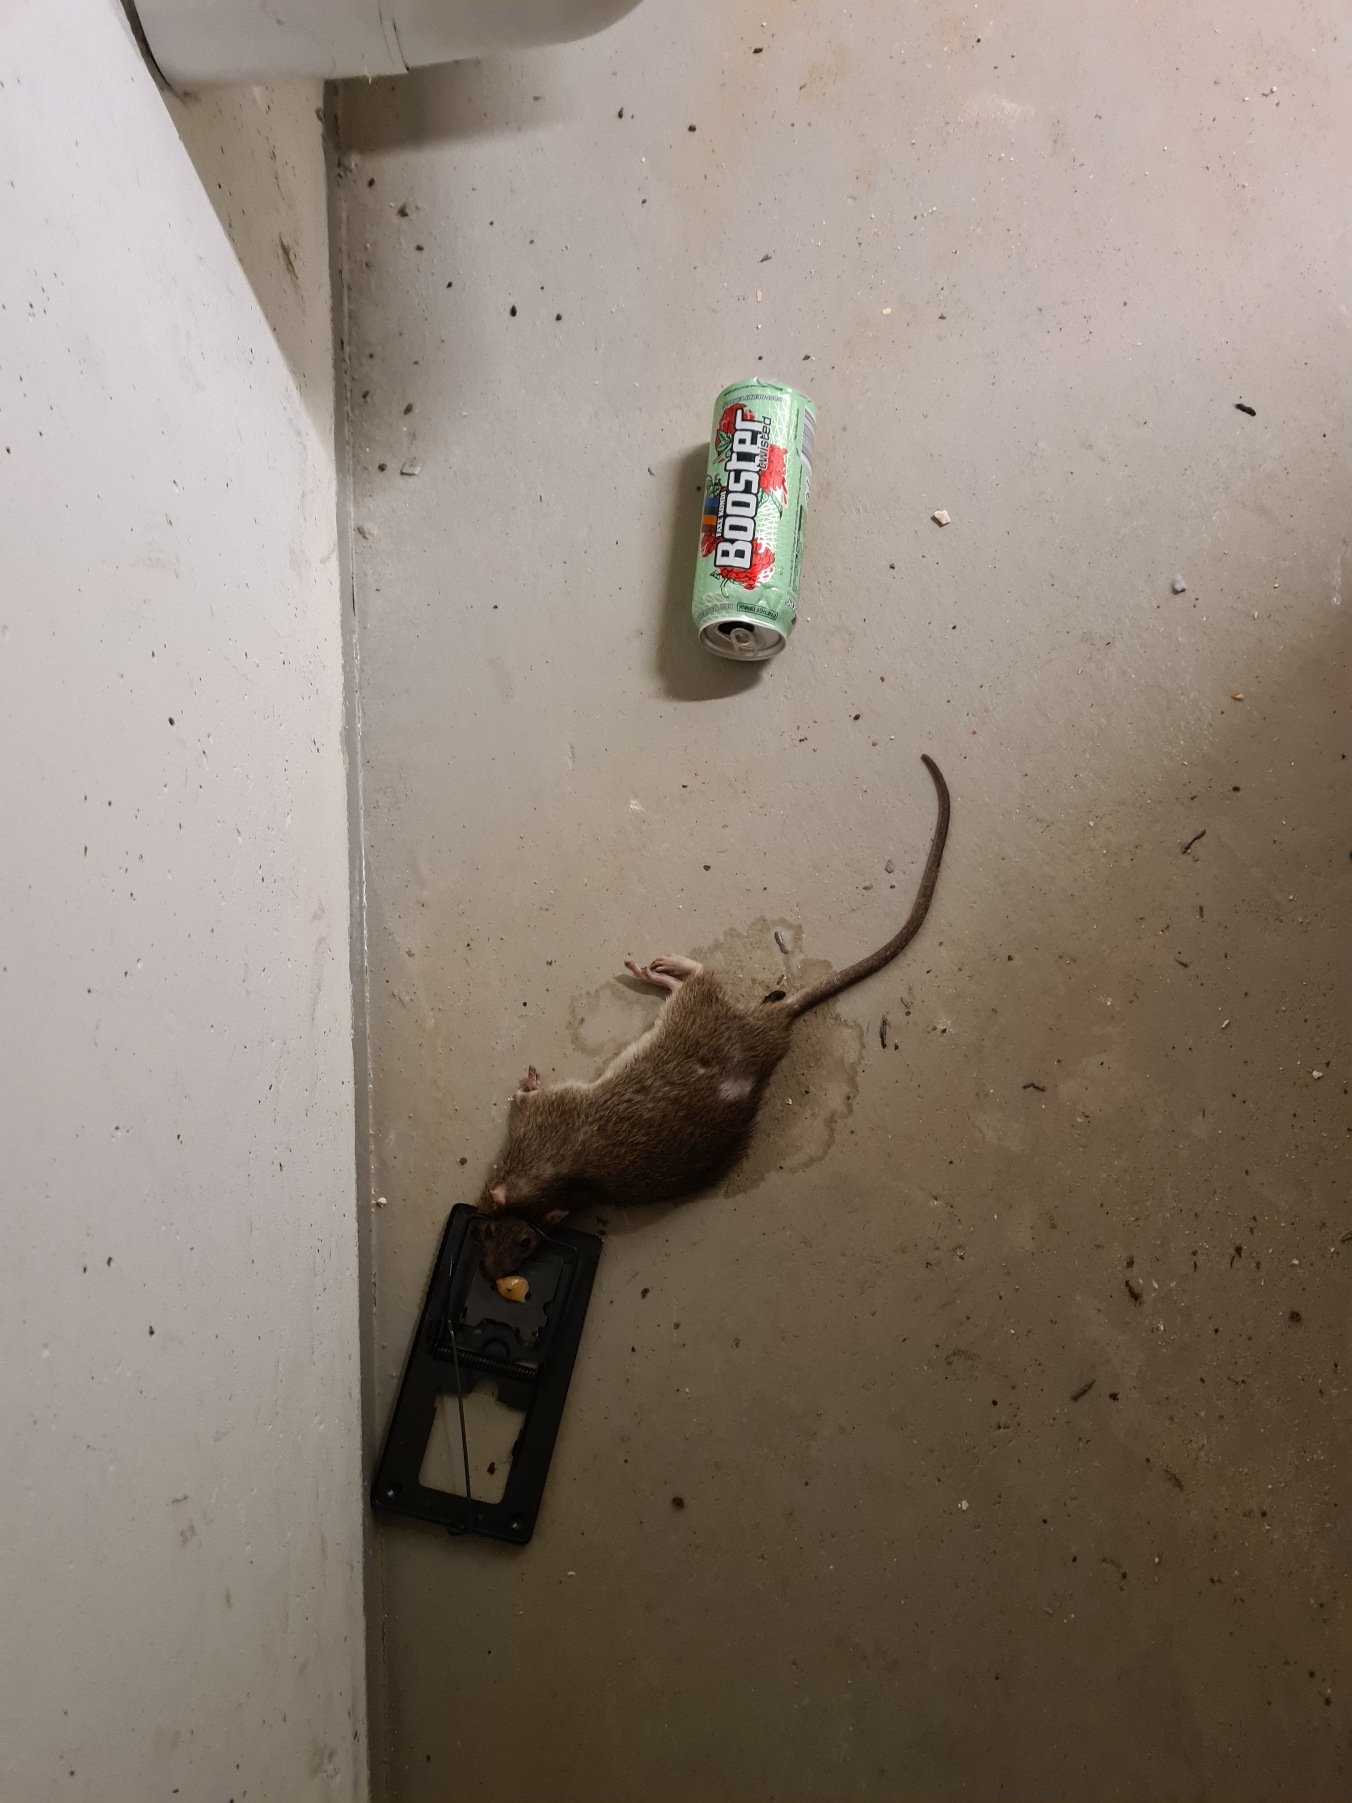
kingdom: Animalia
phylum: Chordata
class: Mammalia
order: Rodentia
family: Muridae
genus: Rattus
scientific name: Rattus norvegicus
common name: Brun rotte
